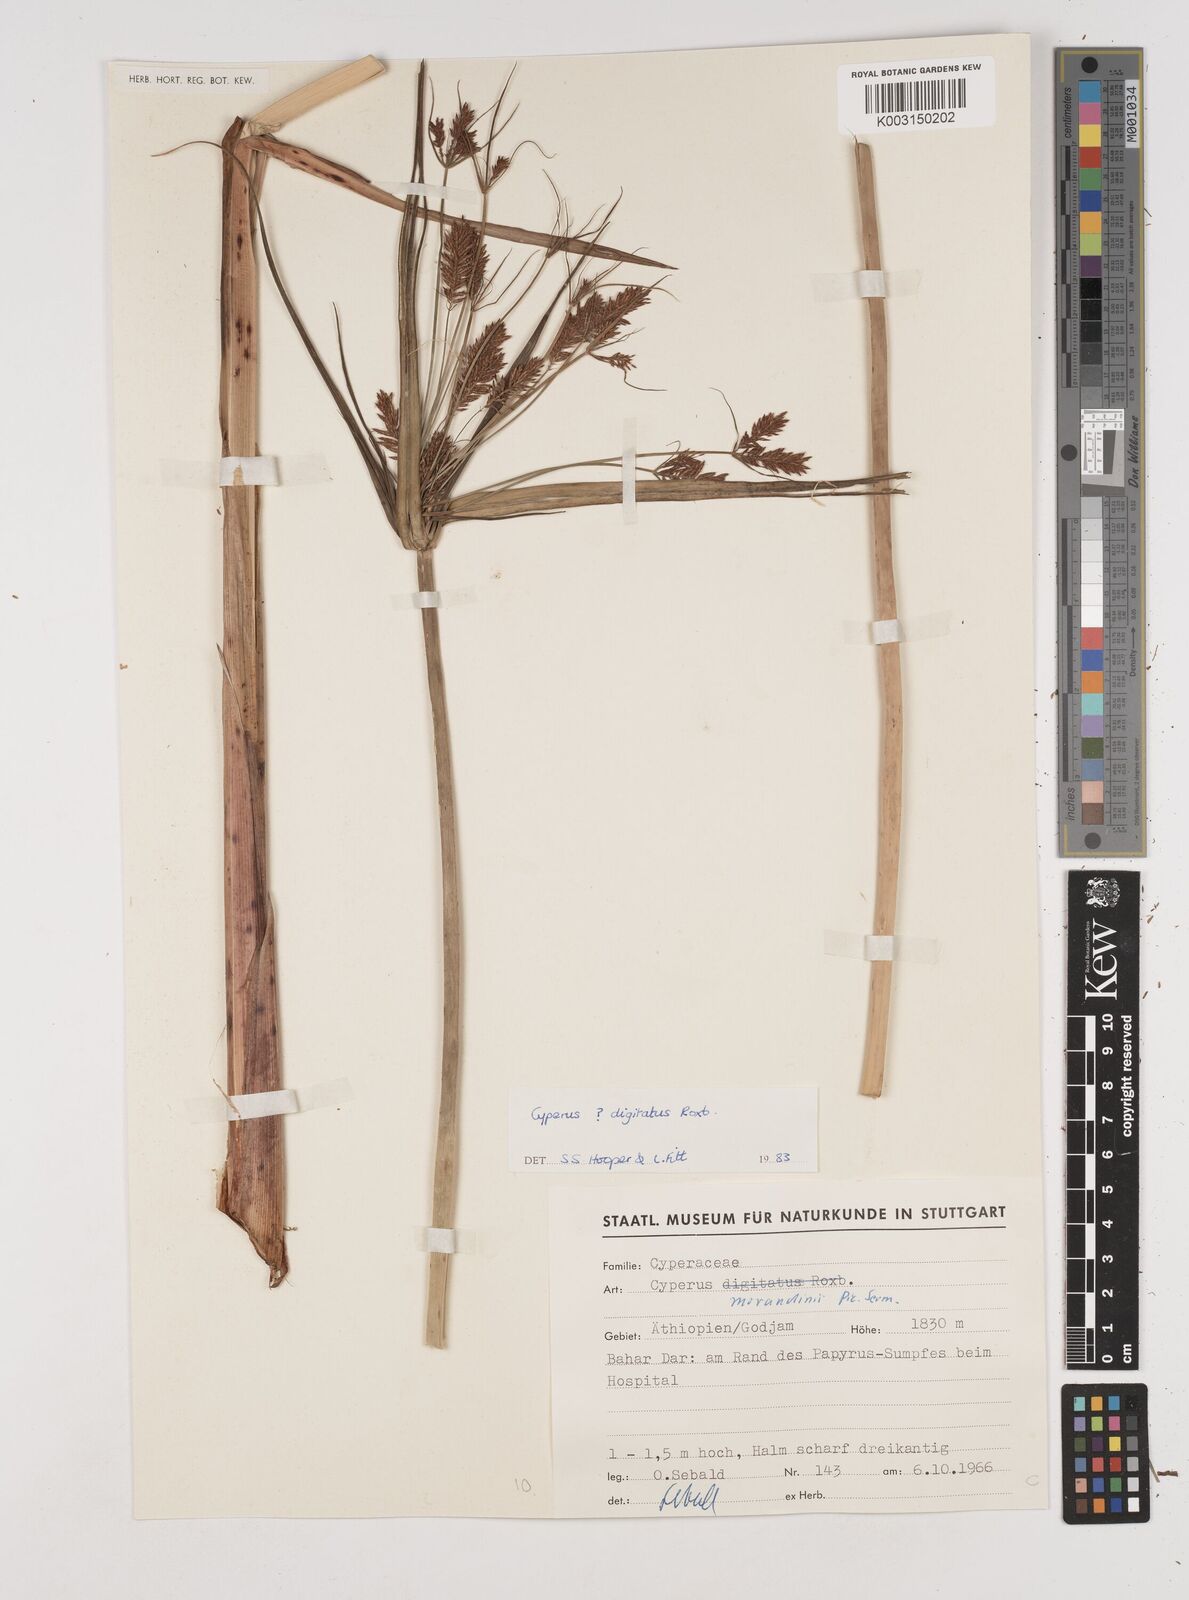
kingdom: Plantae
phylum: Tracheophyta
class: Liliopsida
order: Poales
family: Cyperaceae
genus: Cyperus
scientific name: Cyperus imbricatus
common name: Shingle flatsedge
